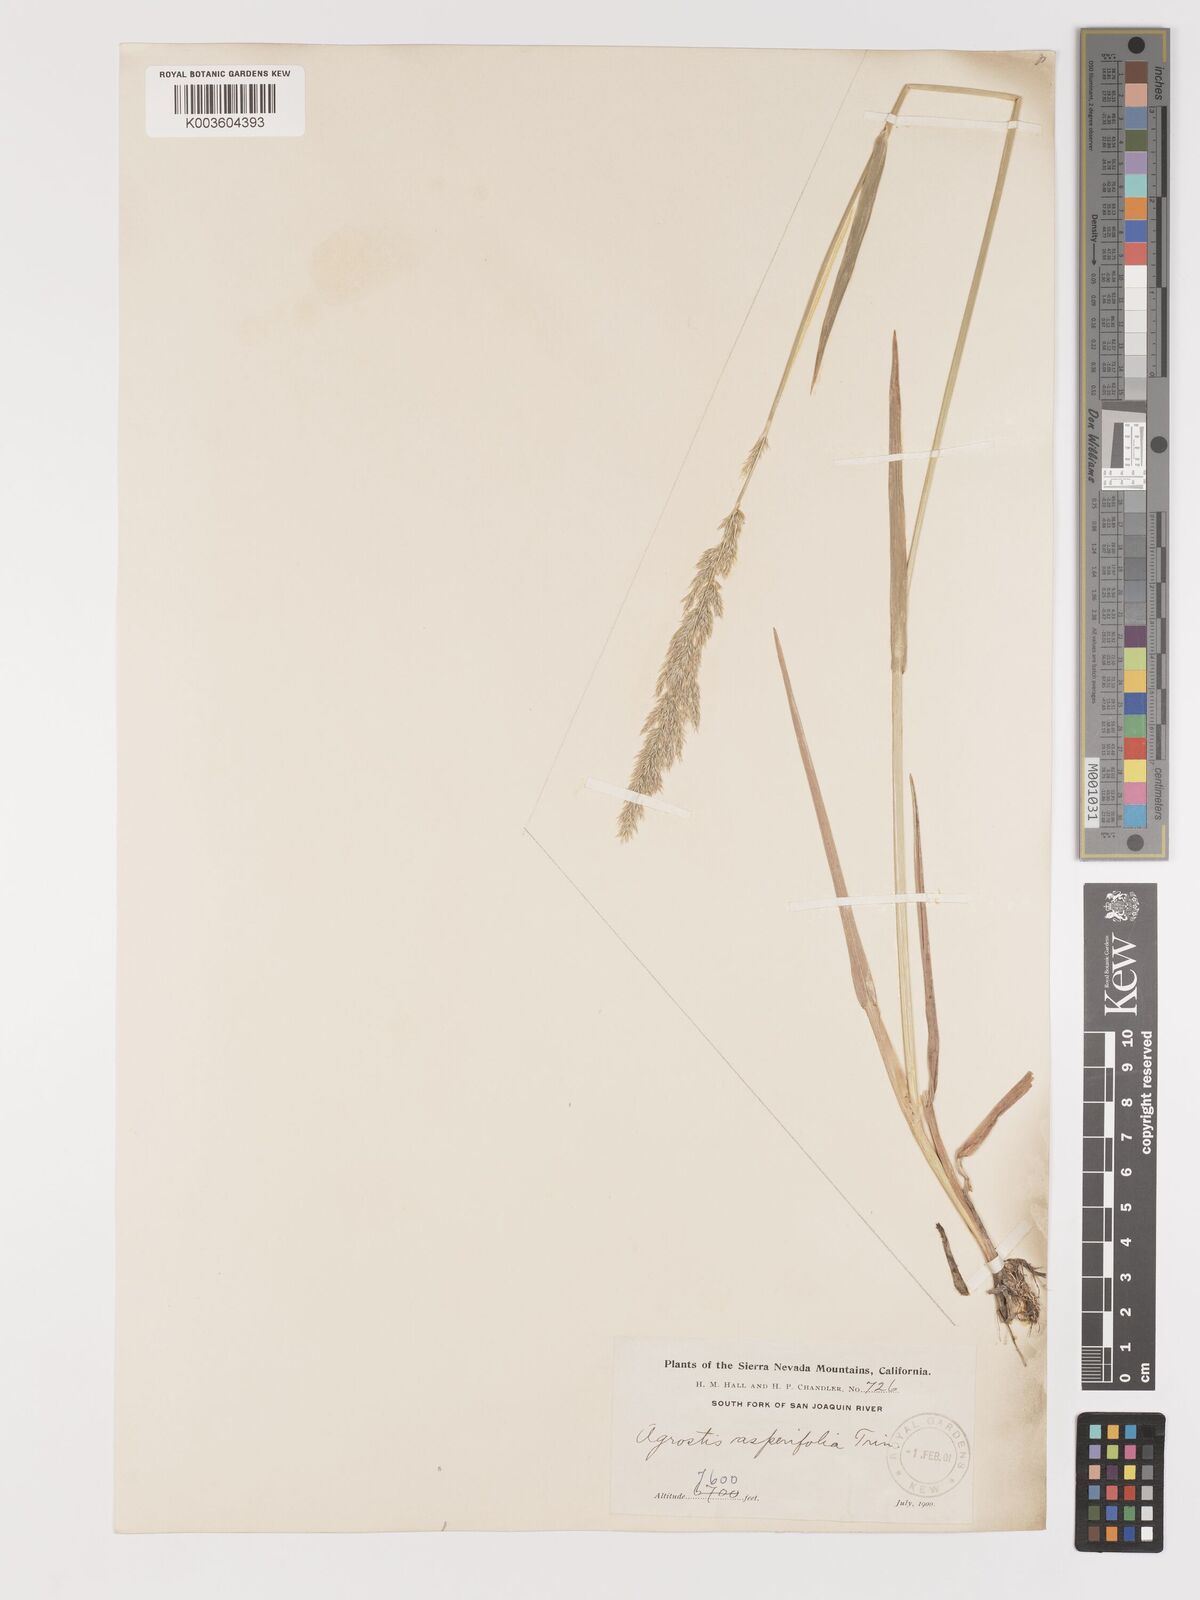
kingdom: Plantae
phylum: Tracheophyta
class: Liliopsida
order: Poales
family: Poaceae
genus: Agrostis
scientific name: Agrostis exarata
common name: Spike bent
